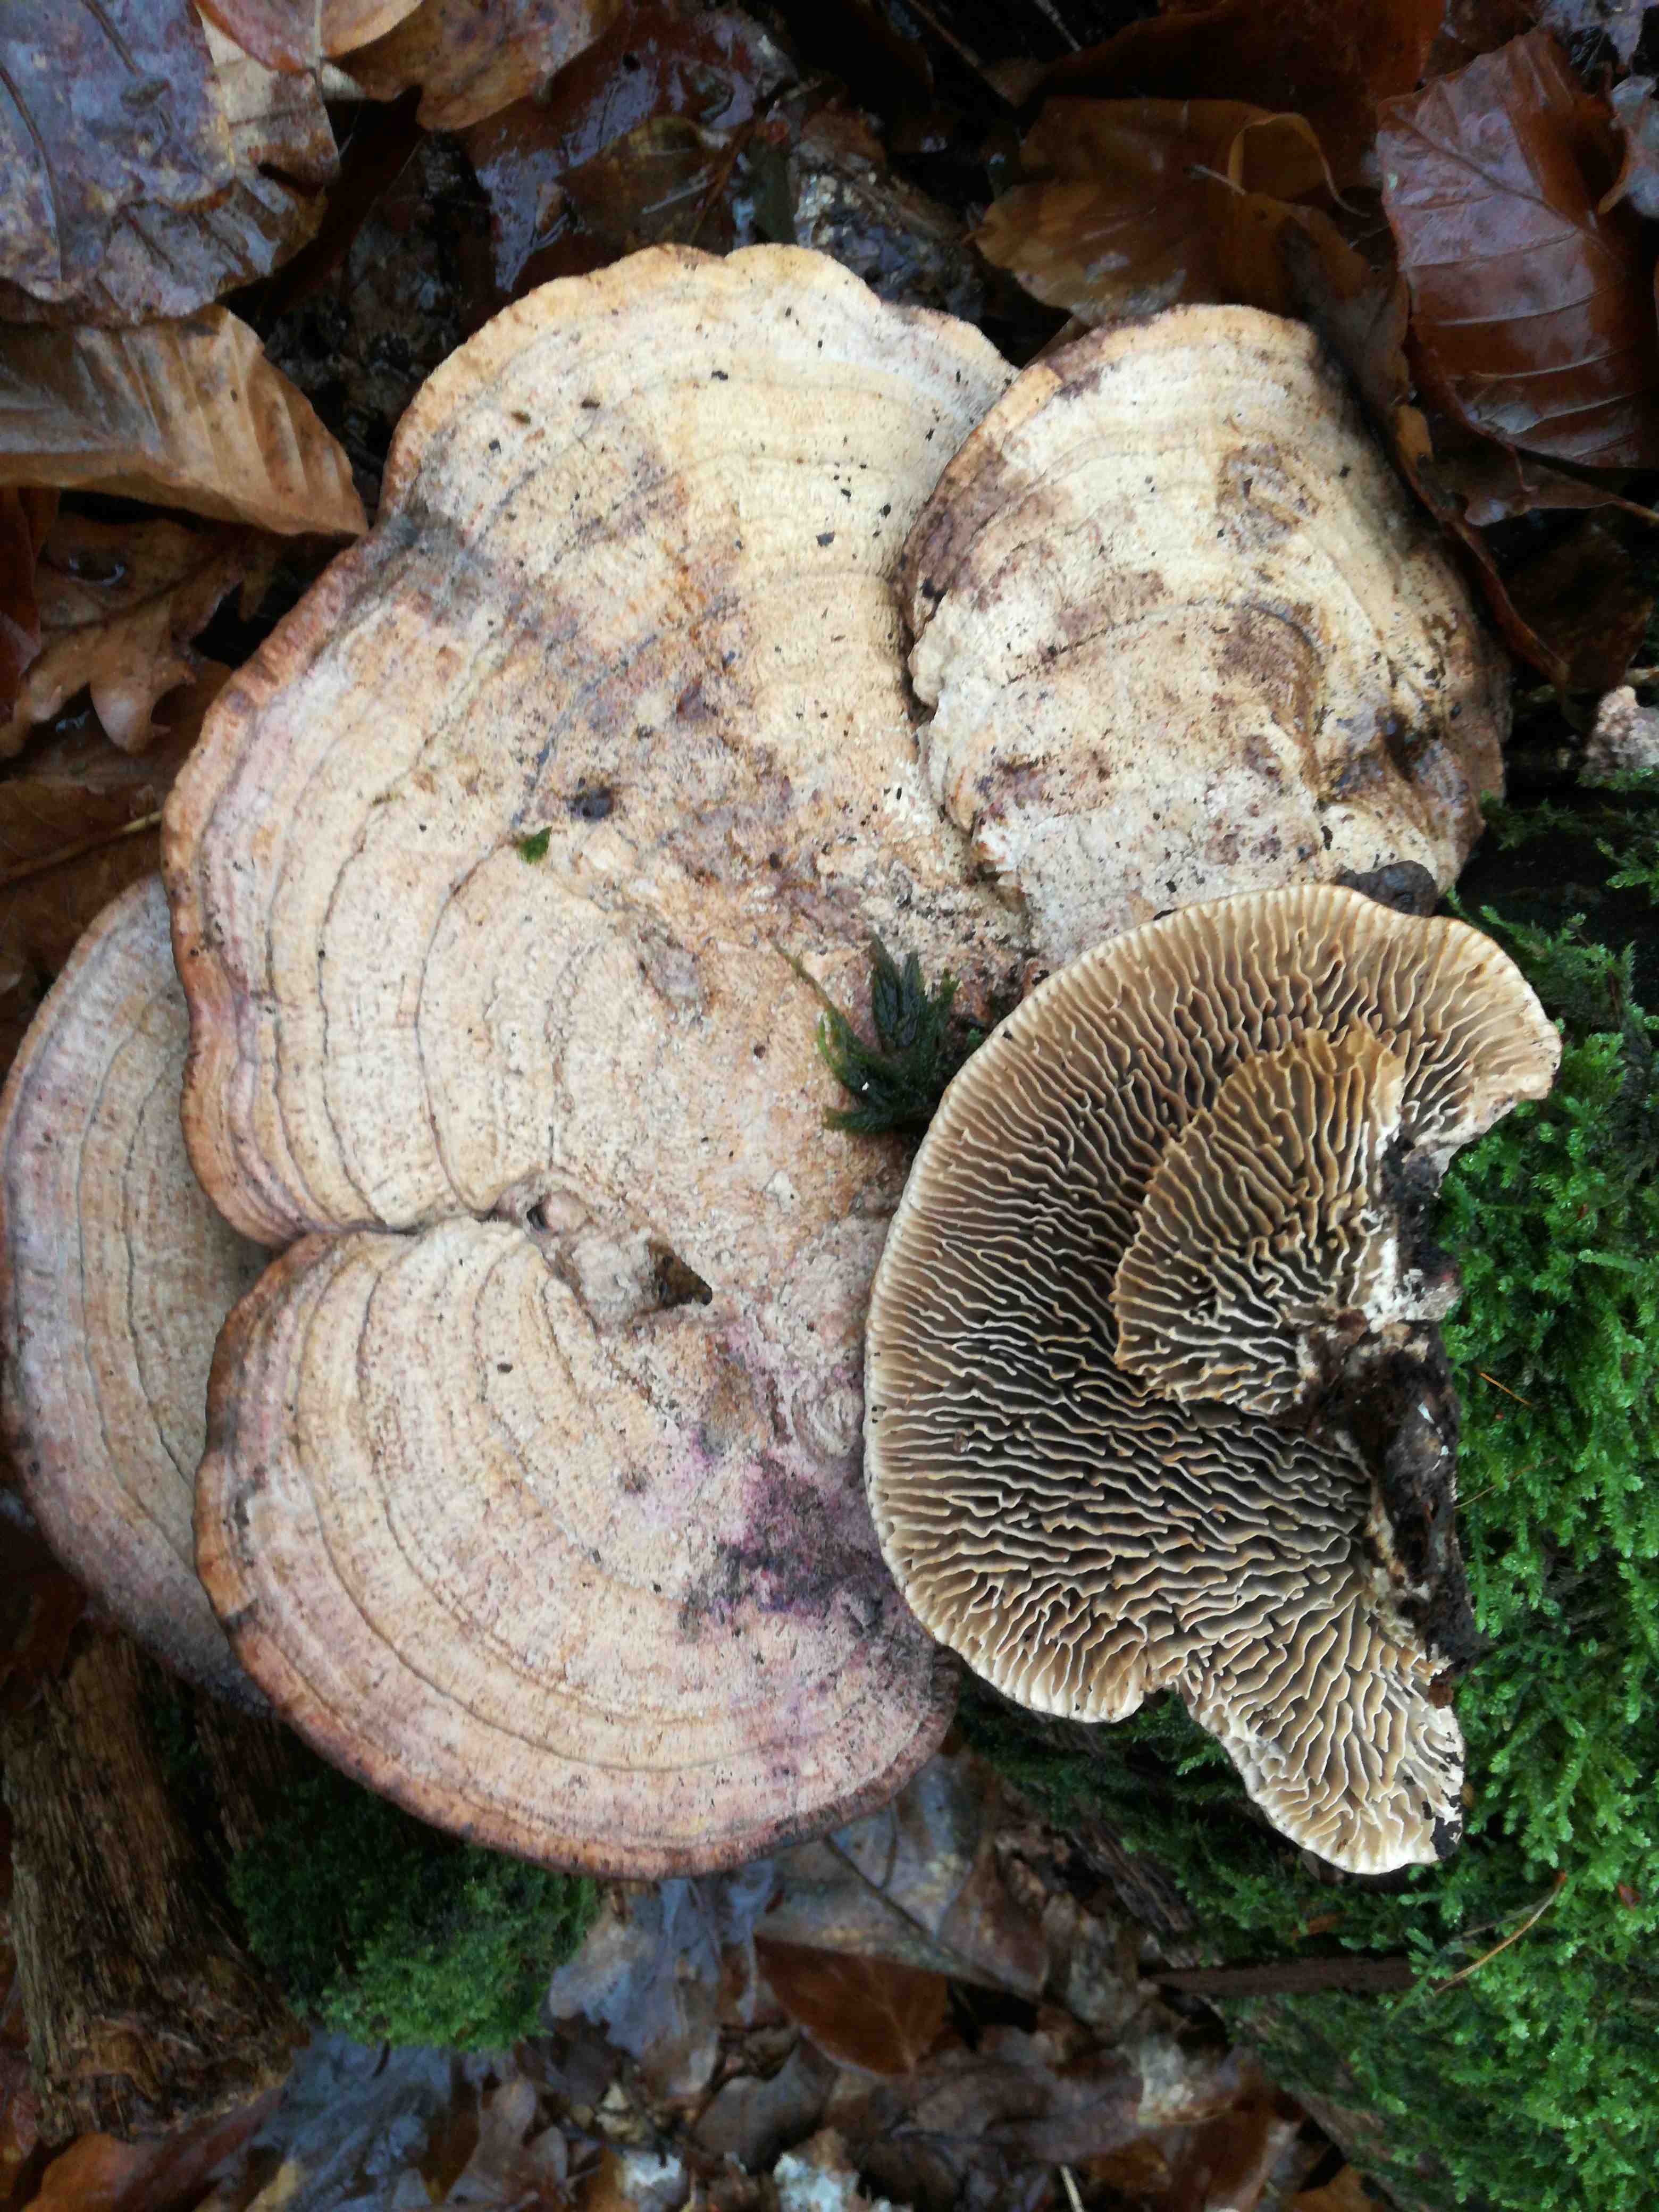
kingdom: Fungi
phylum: Basidiomycota
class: Agaricomycetes
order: Polyporales
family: Fomitopsidaceae
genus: Daedalea
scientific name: Daedalea quercina
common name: ege-labyrintsvamp
